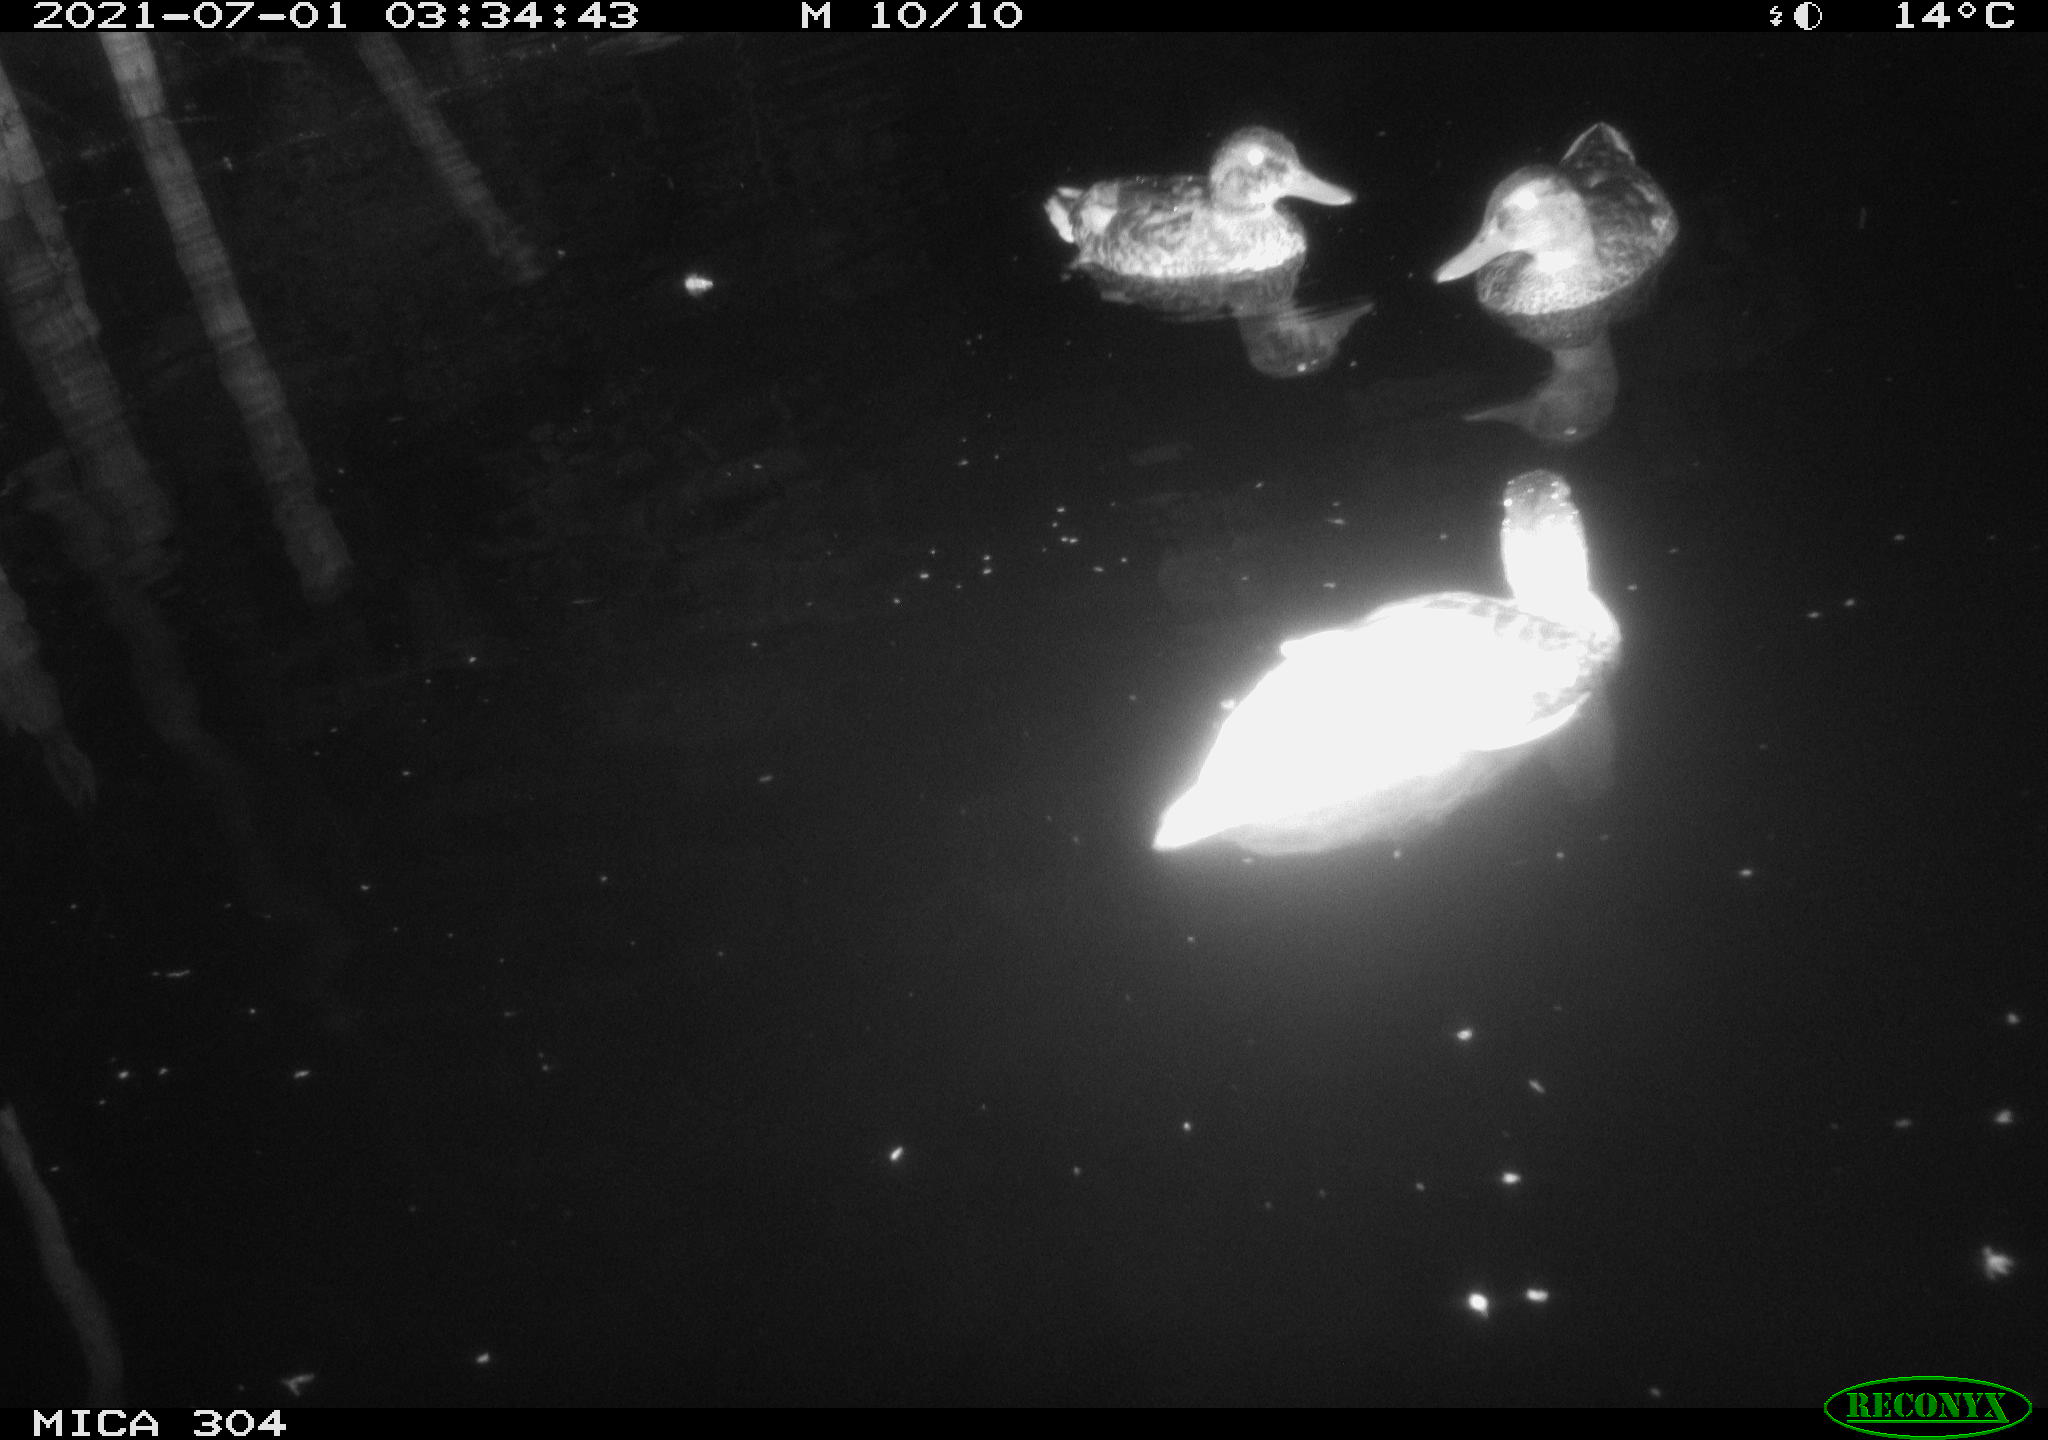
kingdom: Animalia
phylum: Chordata
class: Aves
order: Anseriformes
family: Anatidae
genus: Mareca
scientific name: Mareca strepera
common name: Gadwall
